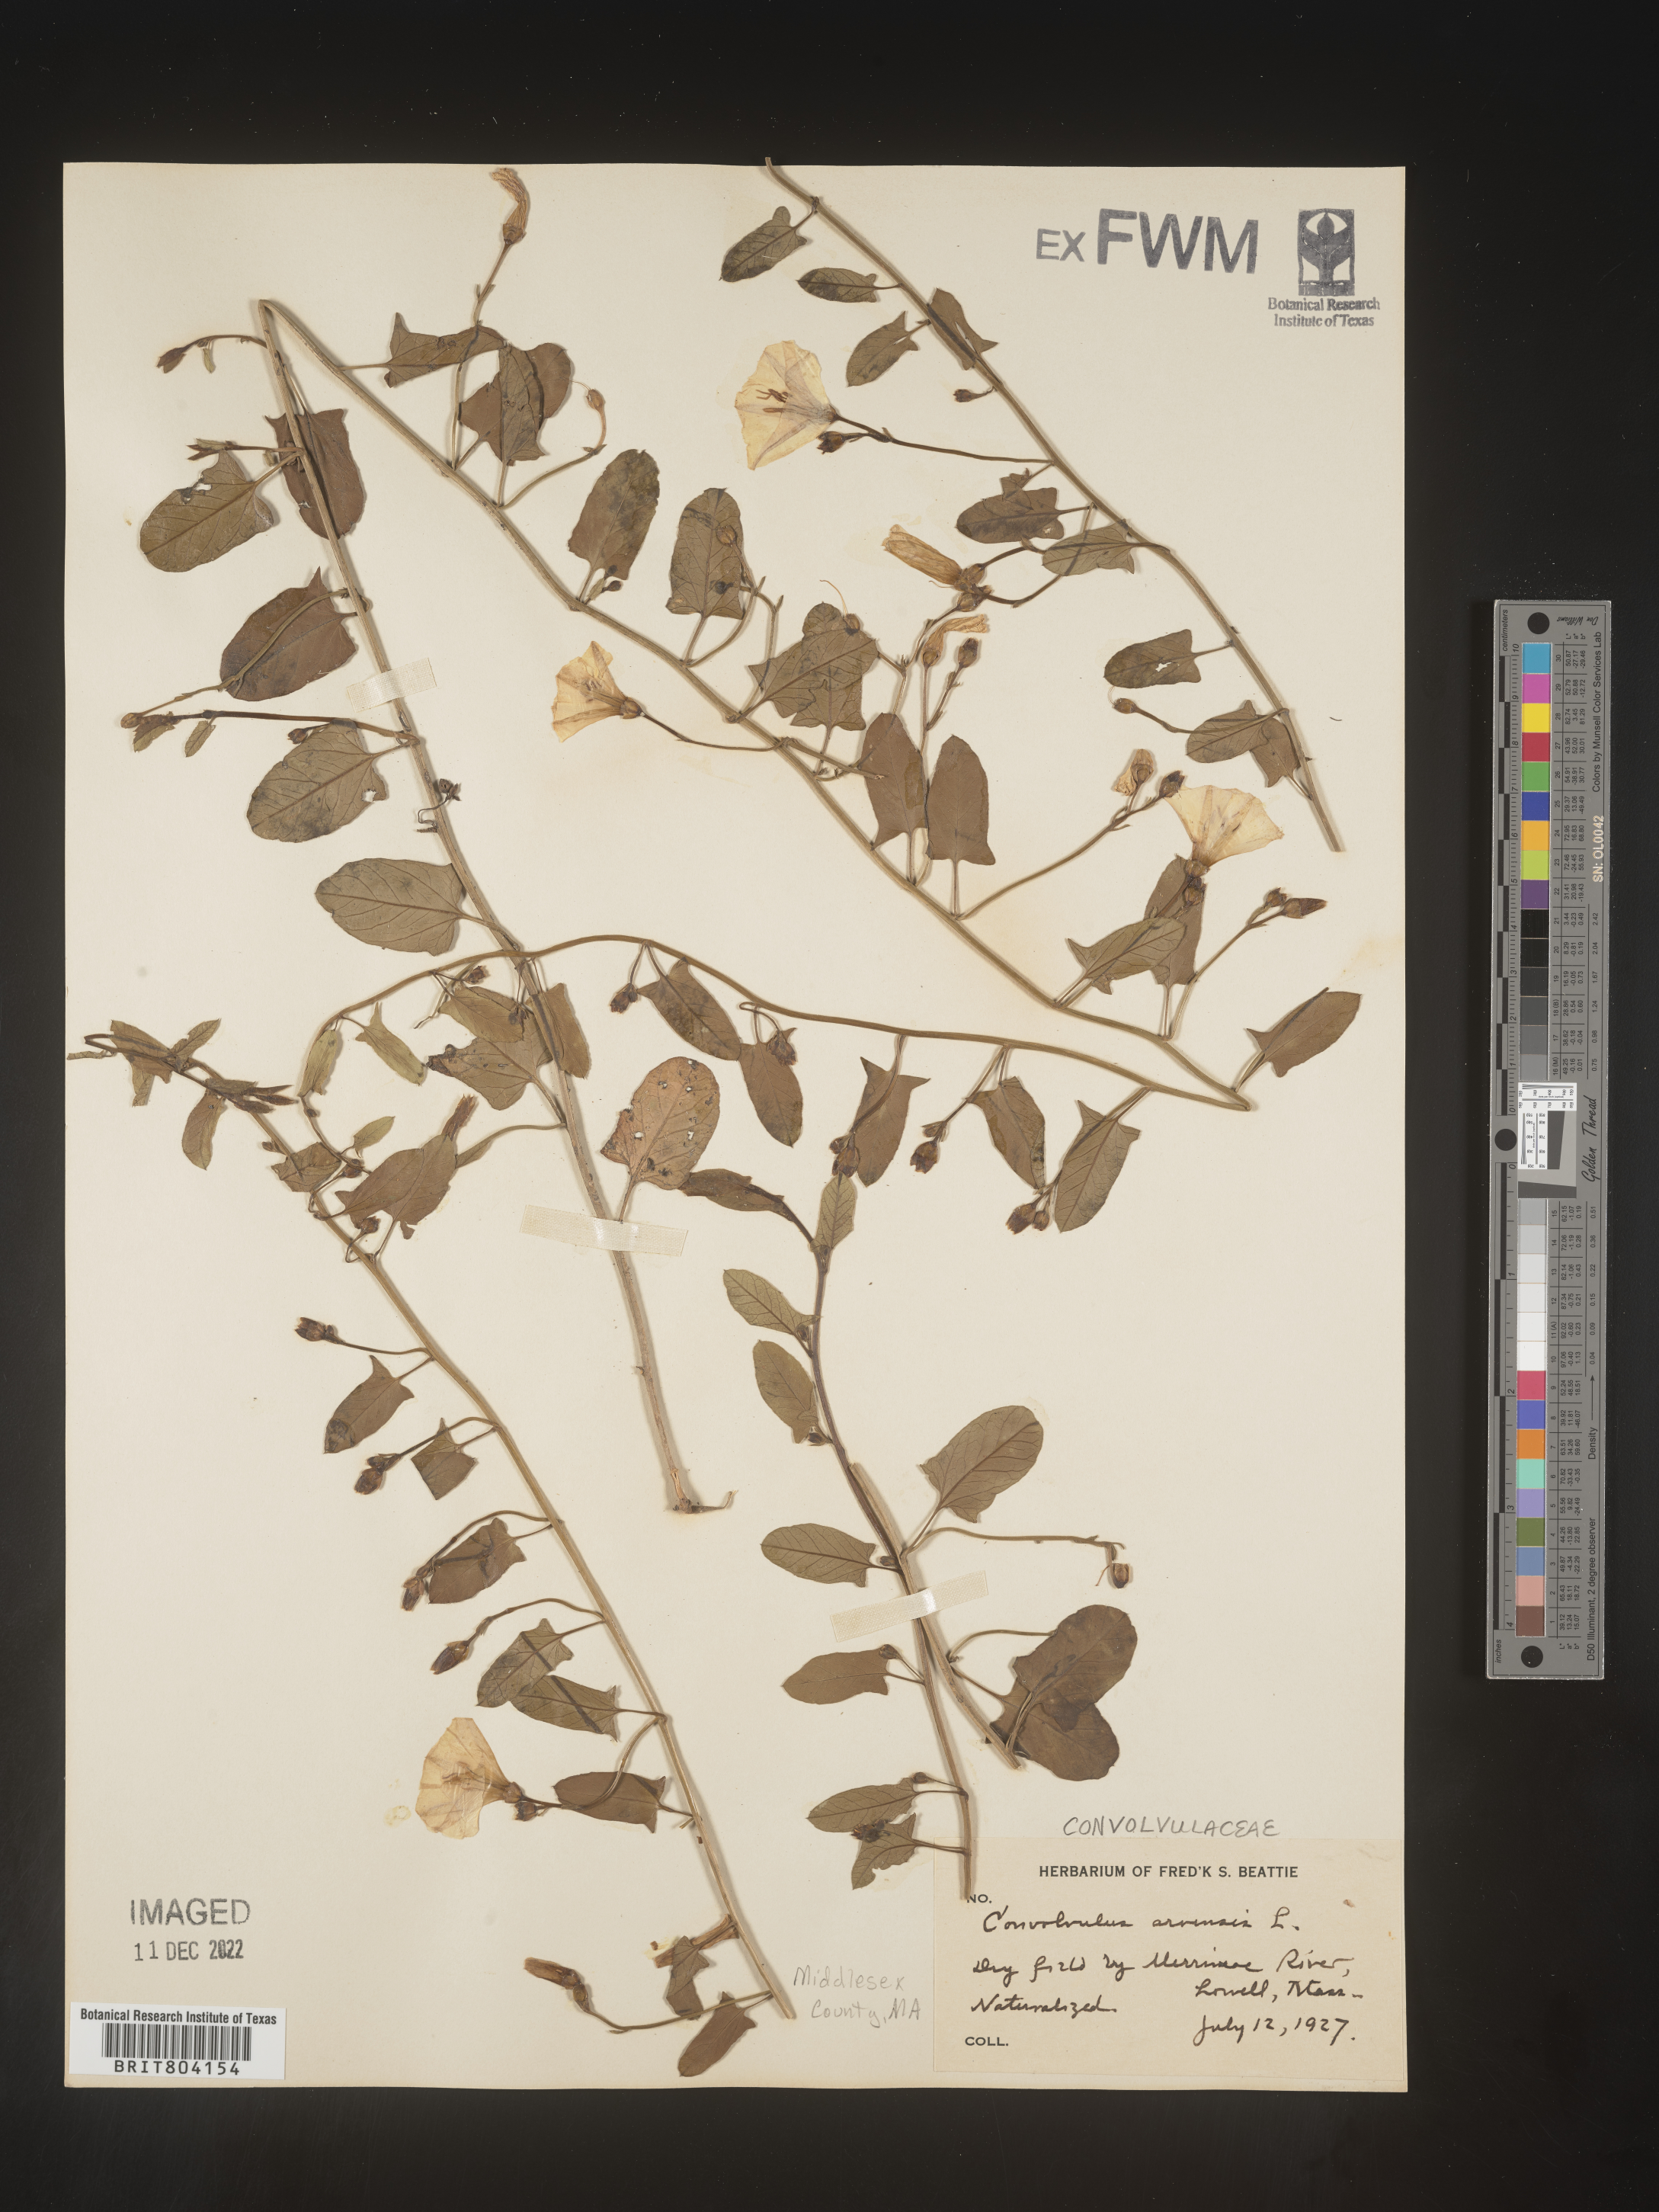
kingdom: Plantae
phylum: Tracheophyta
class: Magnoliopsida
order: Solanales
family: Convolvulaceae
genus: Convolvulus
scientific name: Convolvulus arvensis
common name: Field bindweed
